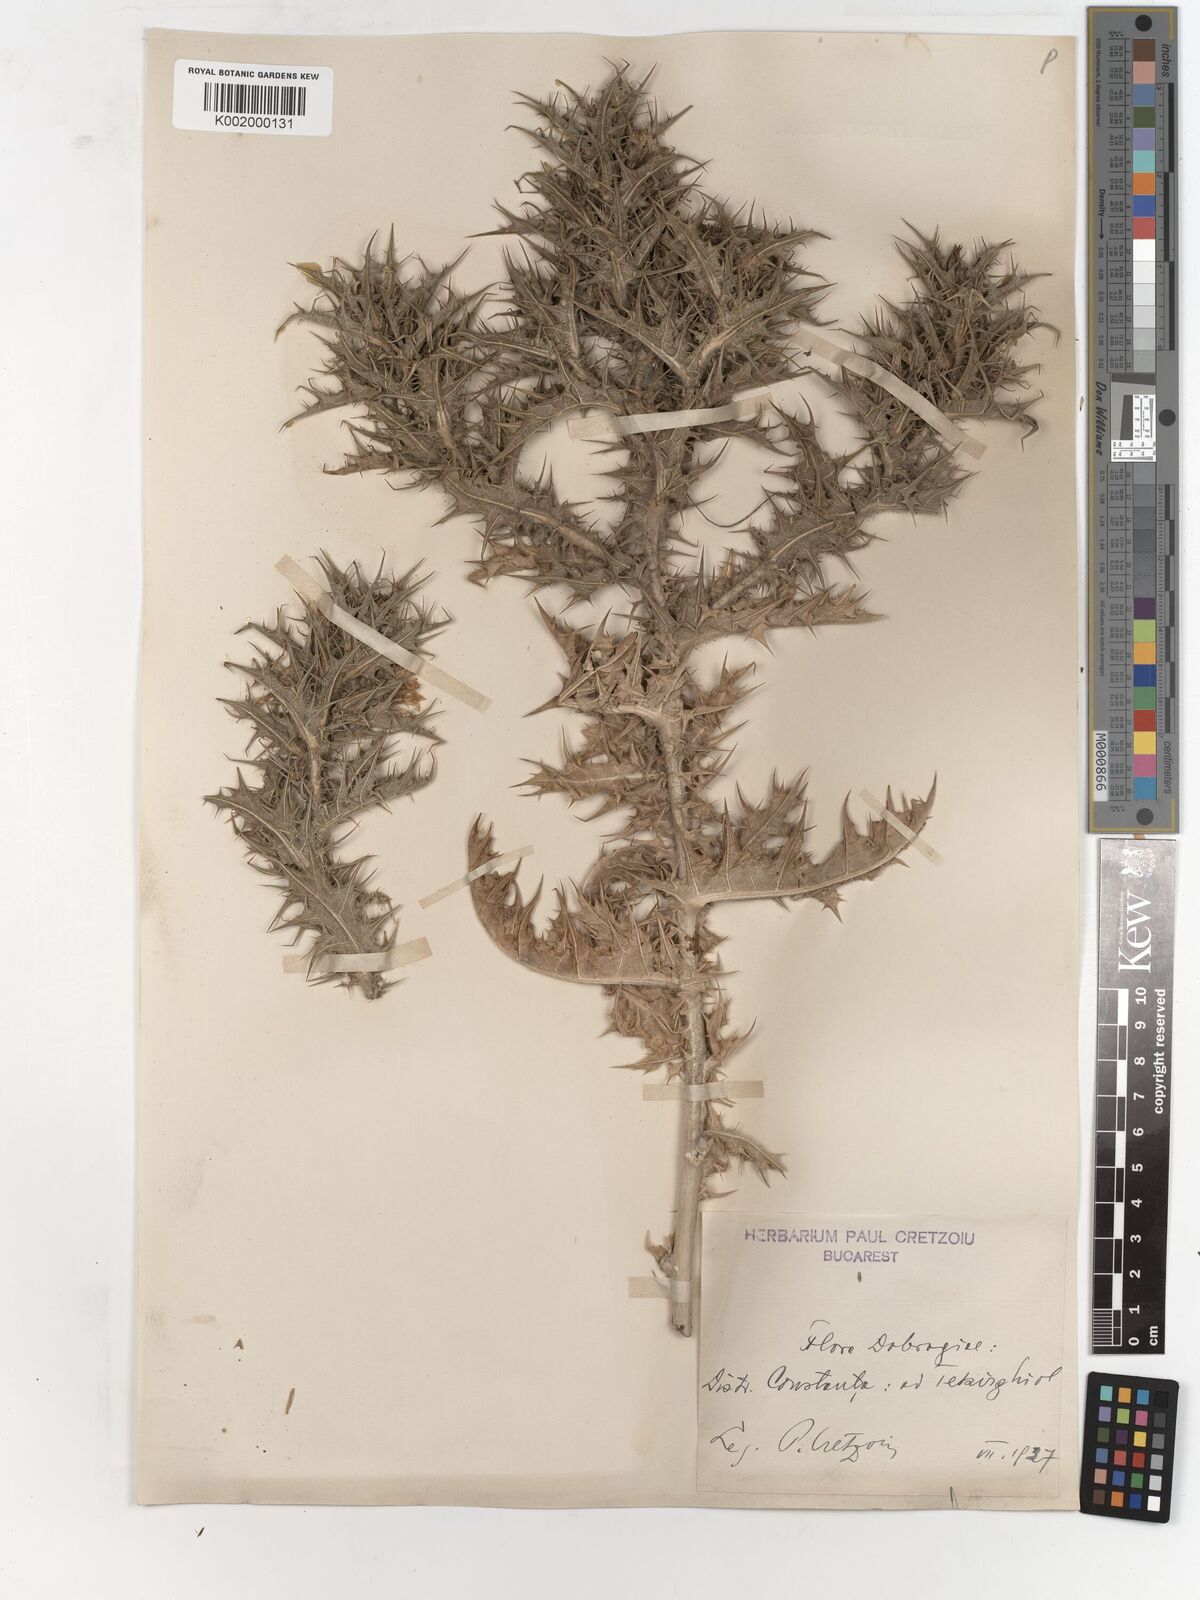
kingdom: Plantae
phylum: Tracheophyta
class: Magnoliopsida
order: Asterales
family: Asteraceae
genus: Carlina
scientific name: Carlina corymbosa
